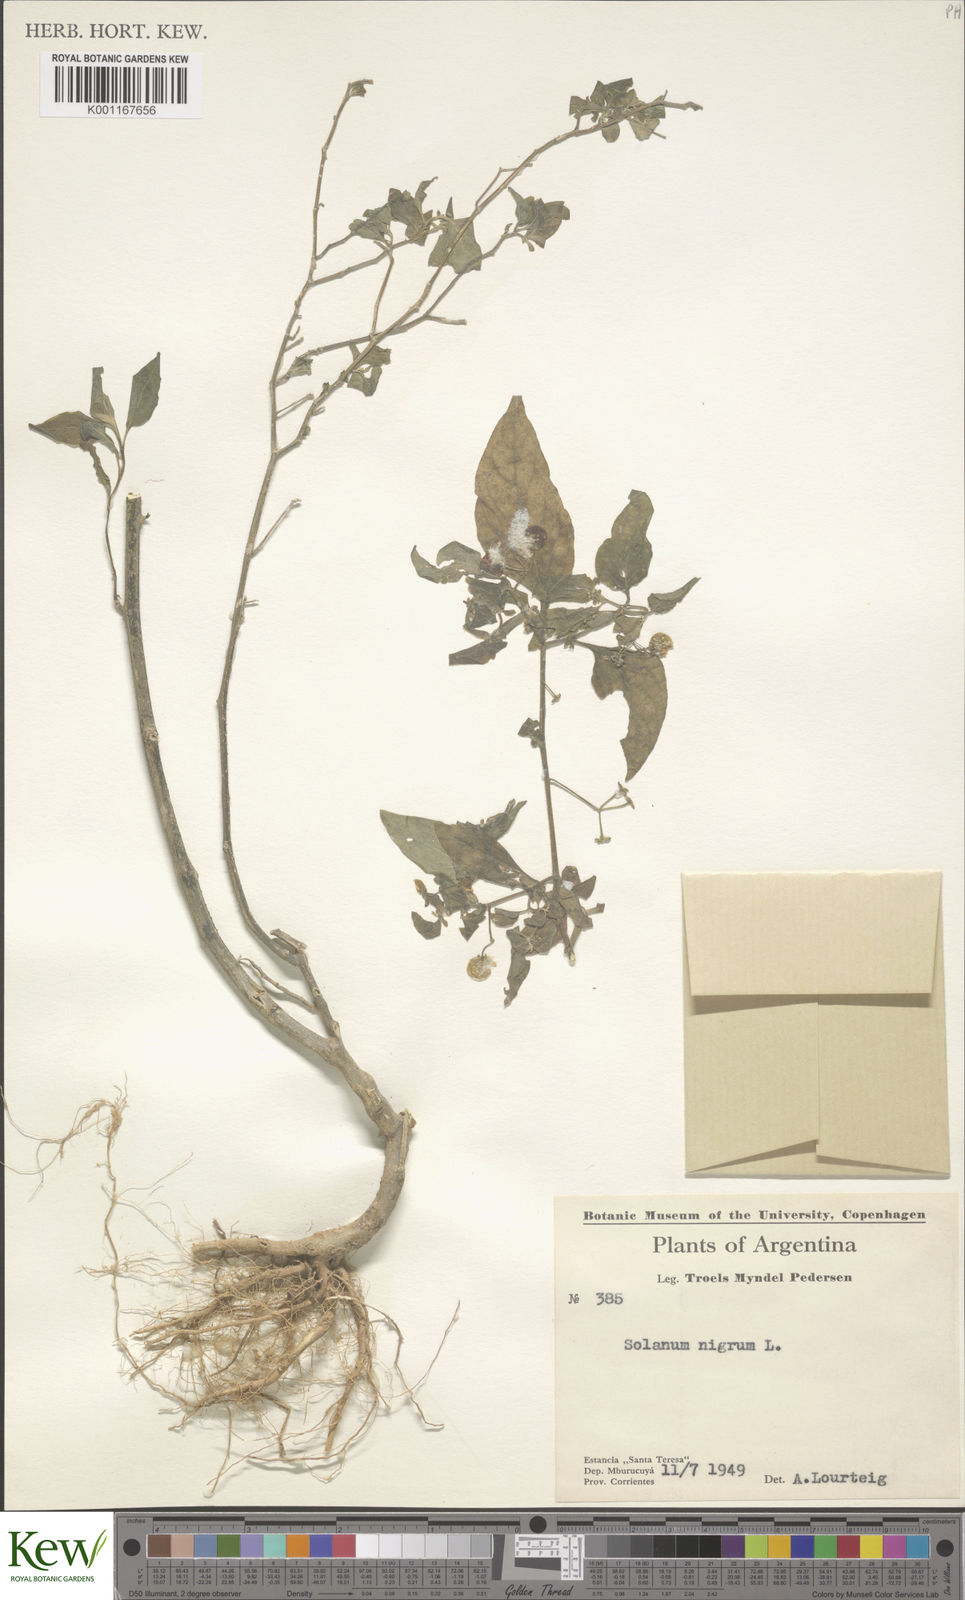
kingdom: Plantae
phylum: Tracheophyta
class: Magnoliopsida
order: Solanales
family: Solanaceae
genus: Solanum
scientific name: Solanum americanum
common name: American black nightshade
